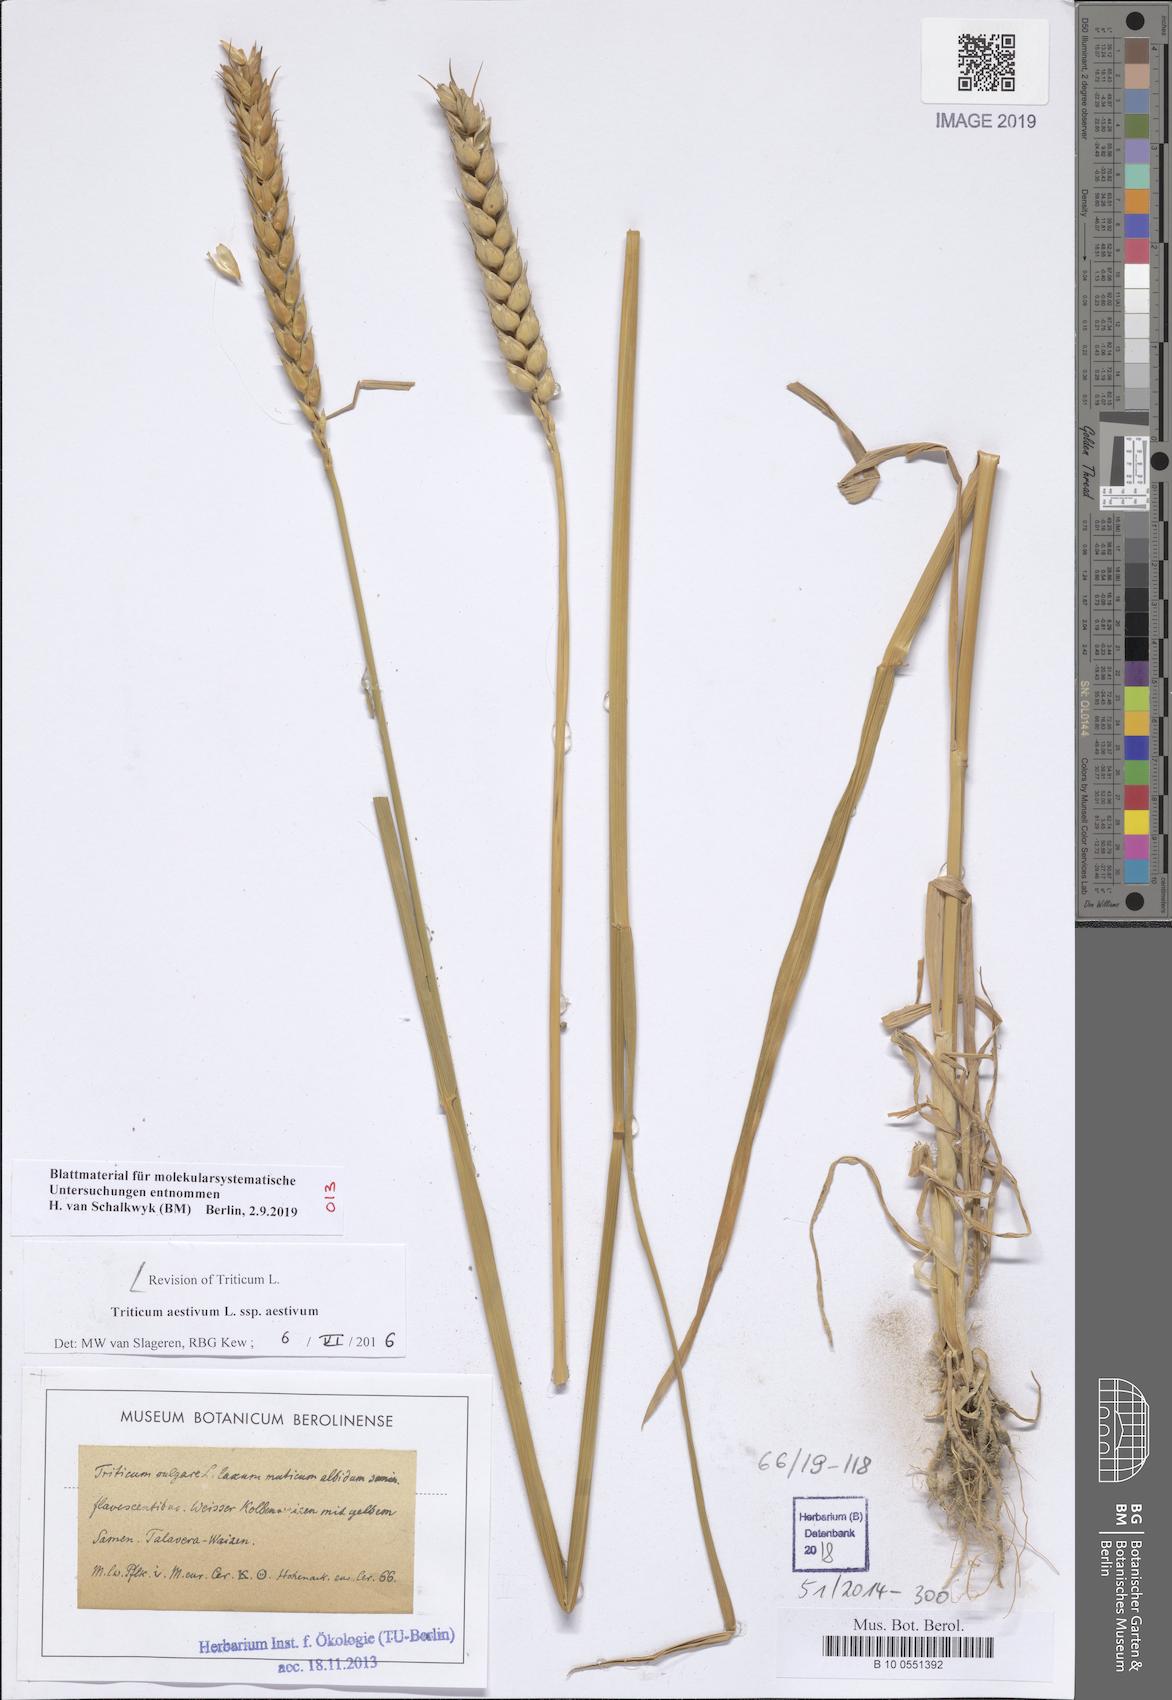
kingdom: Plantae
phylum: Tracheophyta
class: Liliopsida
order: Poales
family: Poaceae
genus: Triticum
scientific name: Triticum aestivum
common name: Common wheat
